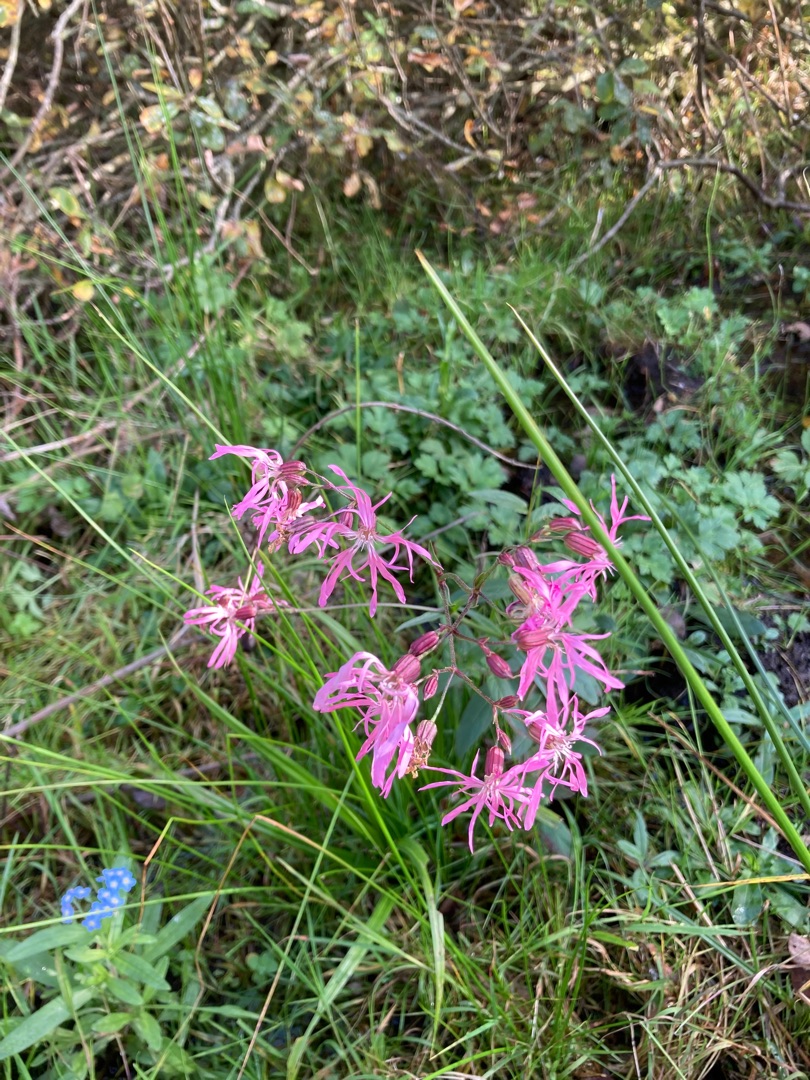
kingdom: Plantae
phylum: Tracheophyta
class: Magnoliopsida
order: Caryophyllales
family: Caryophyllaceae
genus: Silene
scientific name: Silene flos-cuculi
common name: Trævlekrone
